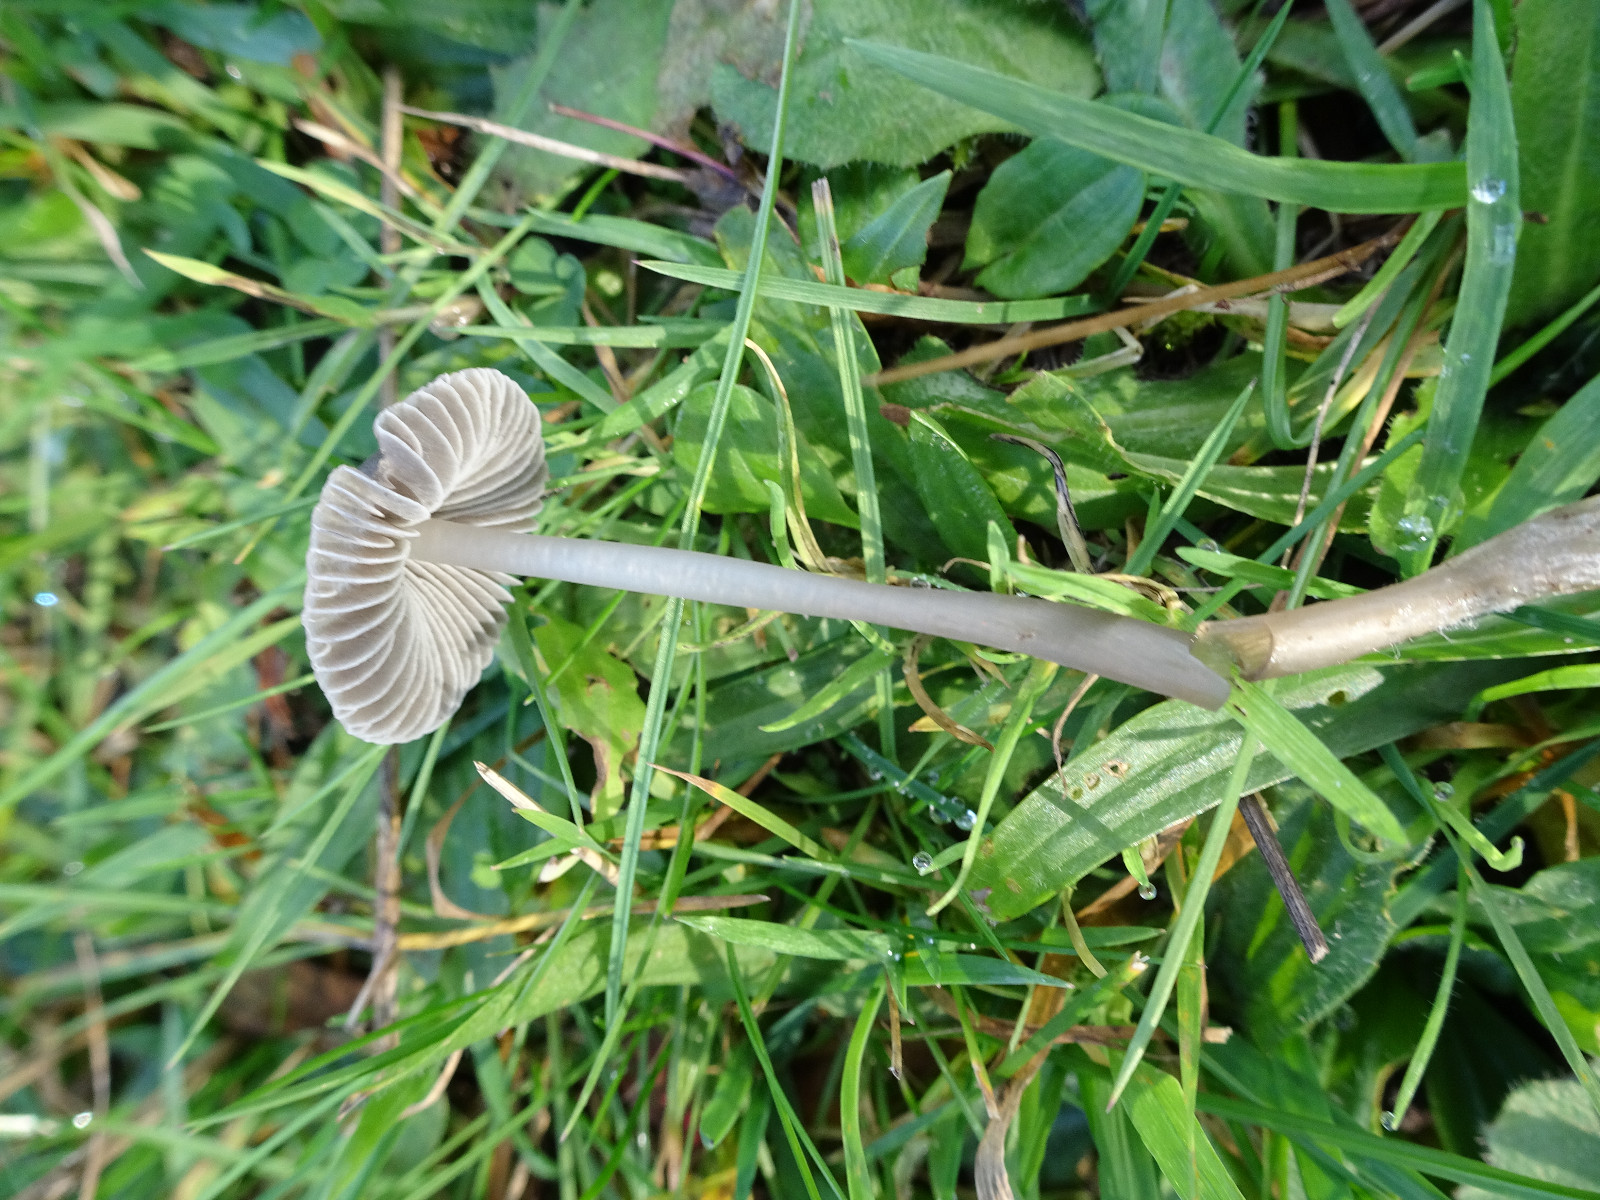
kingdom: Fungi
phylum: Basidiomycota
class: Agaricomycetes
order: Agaricales
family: Mycenaceae
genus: Mycena
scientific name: Mycena aetites
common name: plæne-huesvamp
